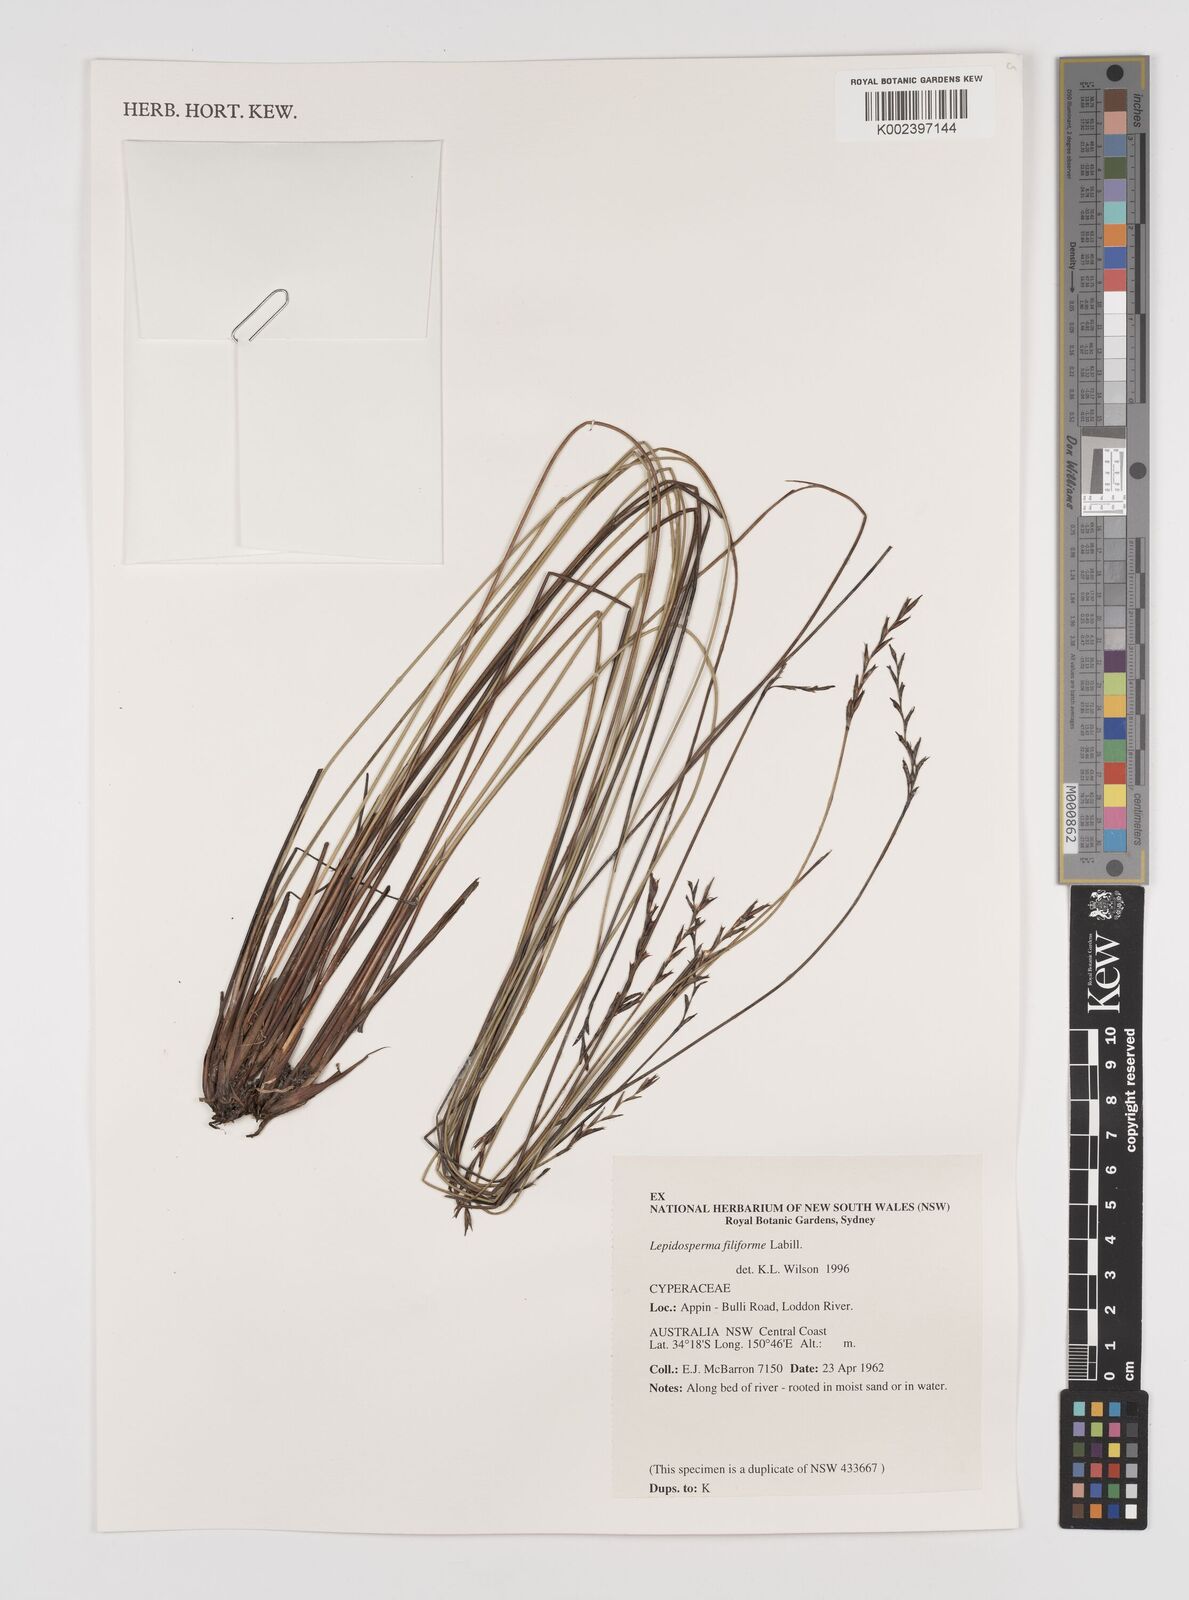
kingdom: Plantae
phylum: Tracheophyta
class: Liliopsida
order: Poales
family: Cyperaceae
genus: Lepidosperma
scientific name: Lepidosperma filiforme
